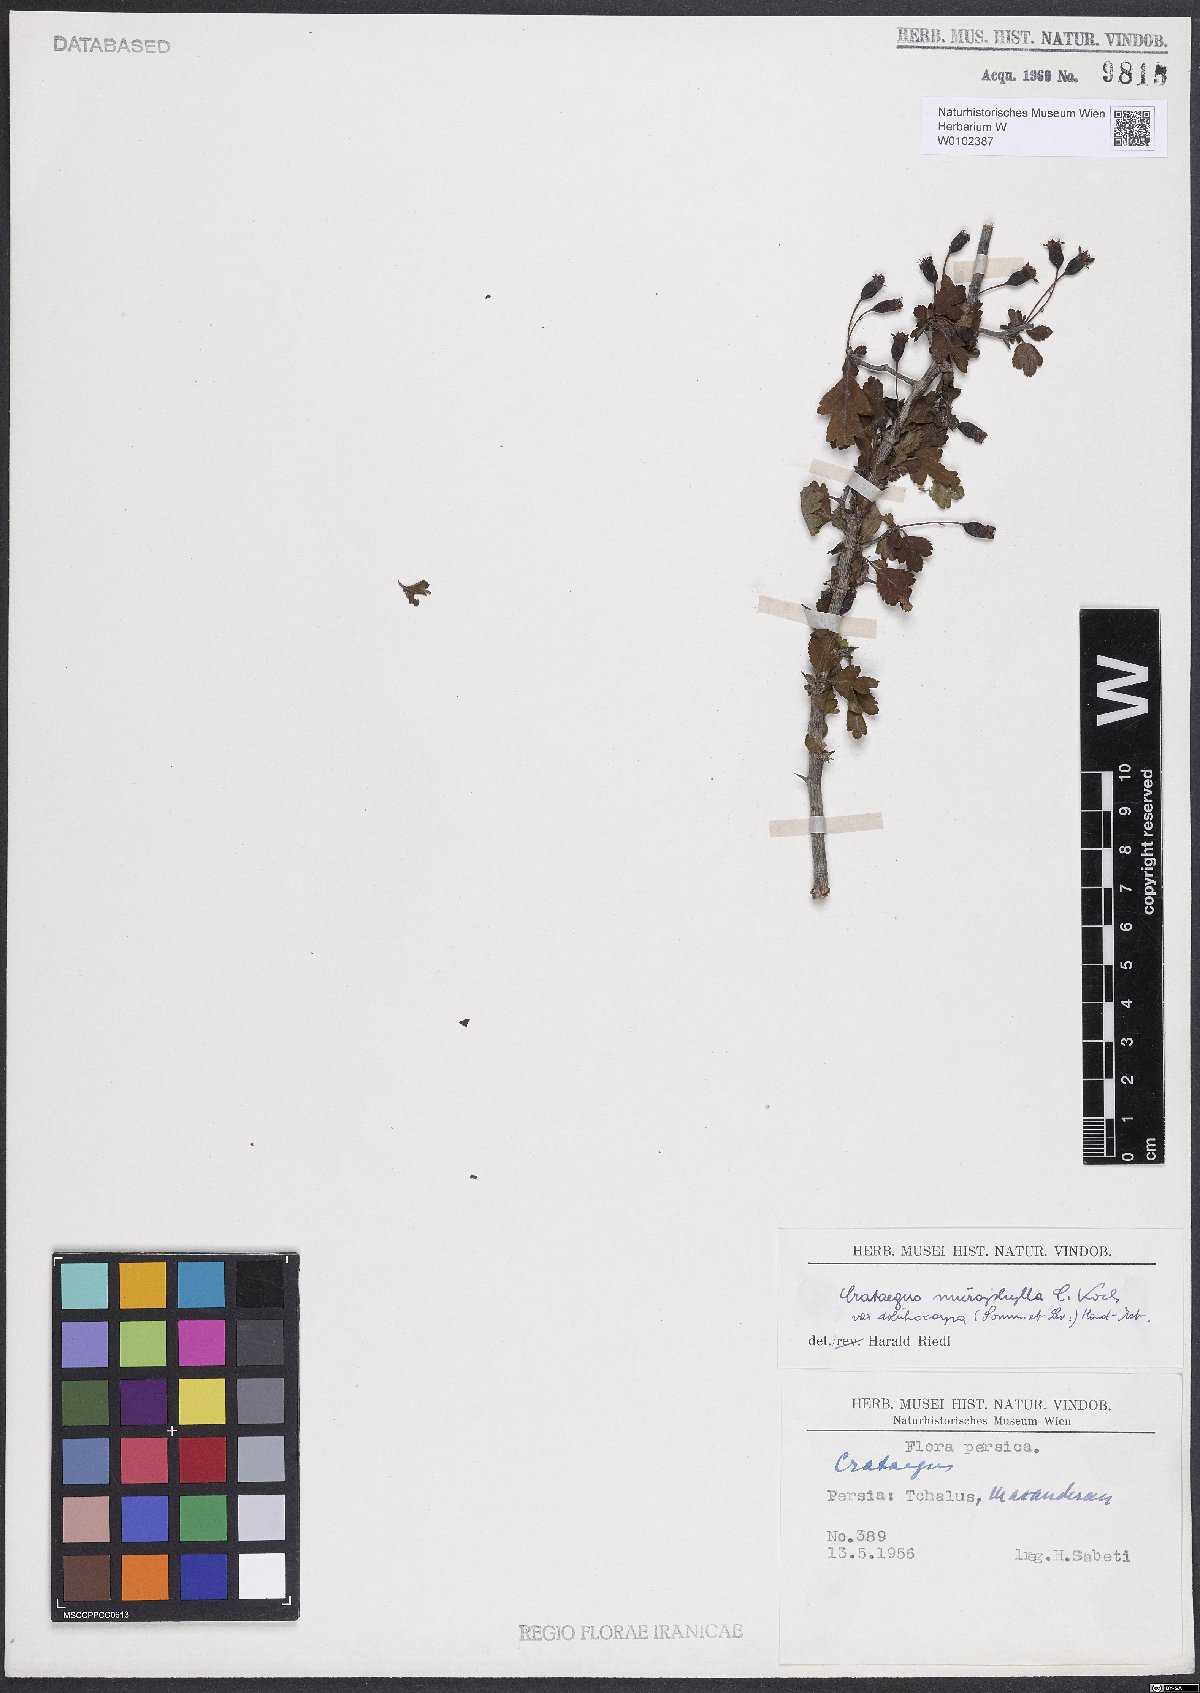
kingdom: Plantae
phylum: Tracheophyta
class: Magnoliopsida
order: Rosales
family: Rosaceae
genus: Crataegus
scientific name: Crataegus microphylla
